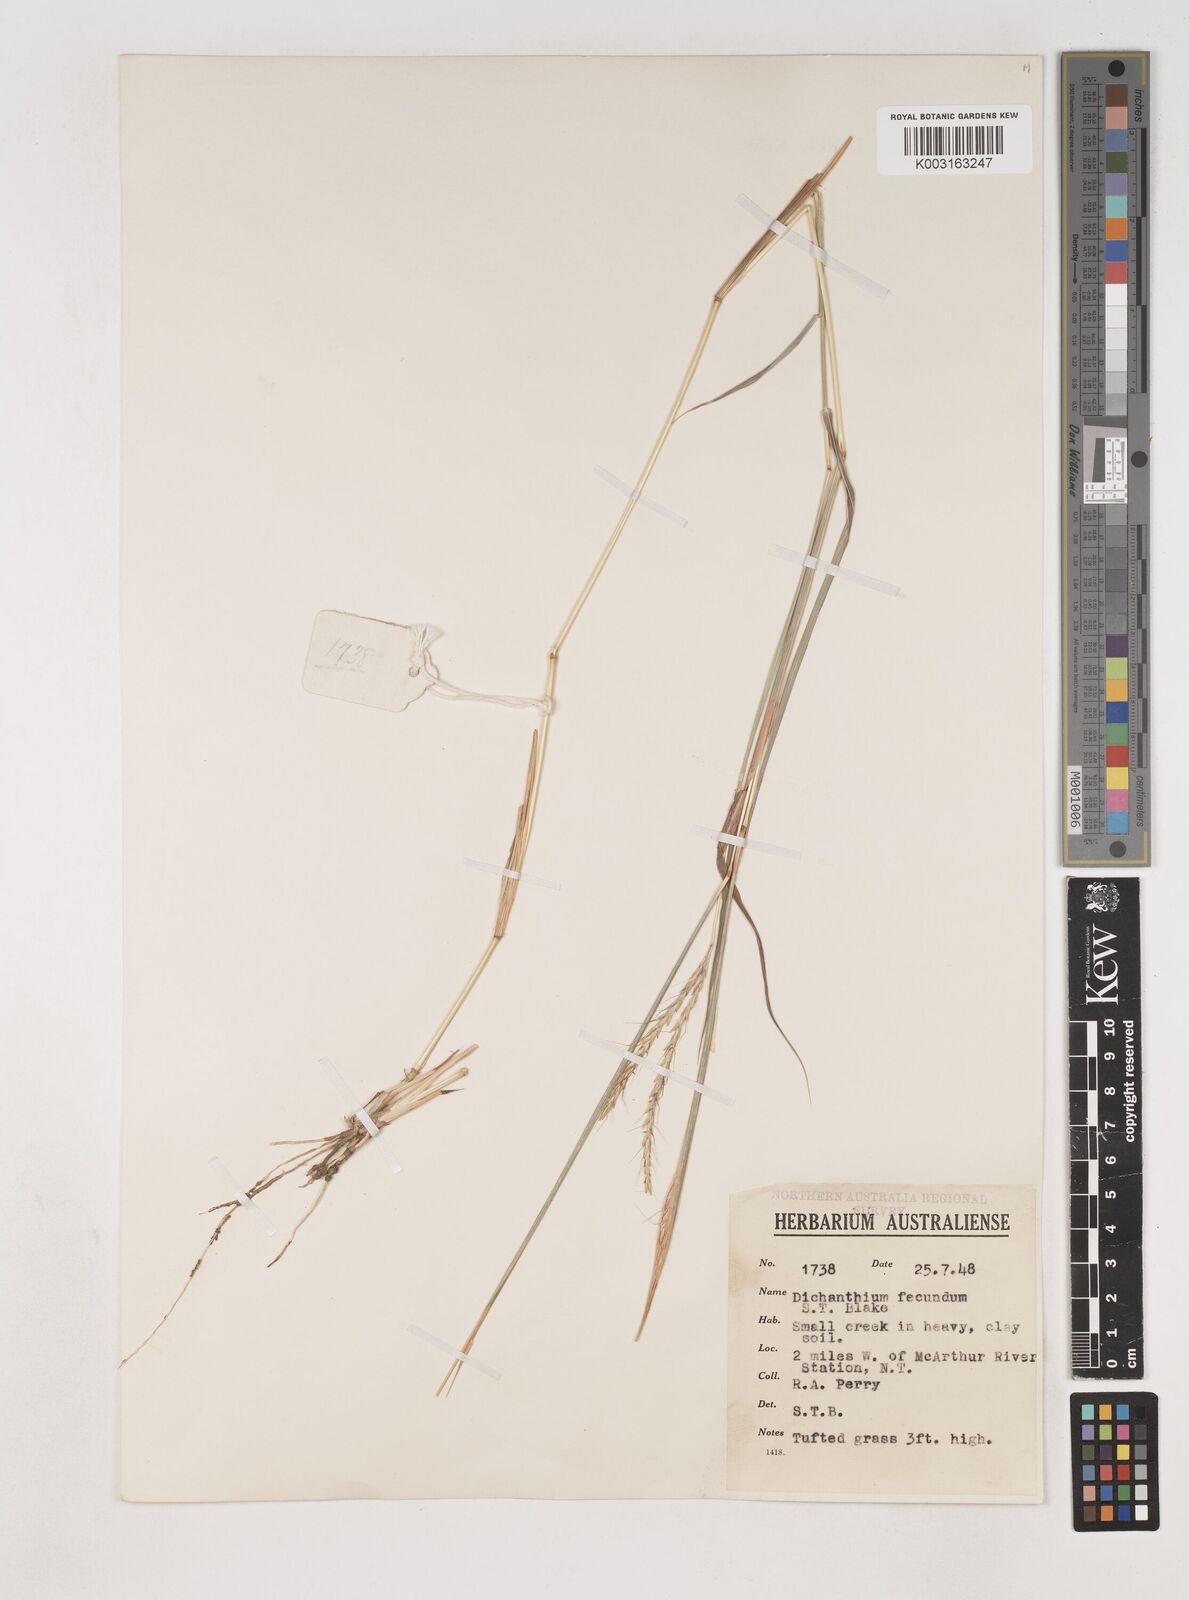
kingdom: Plantae
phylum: Tracheophyta
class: Liliopsida
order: Poales
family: Poaceae
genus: Dichanthium
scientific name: Dichanthium fecundum
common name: Bundle-bundle
